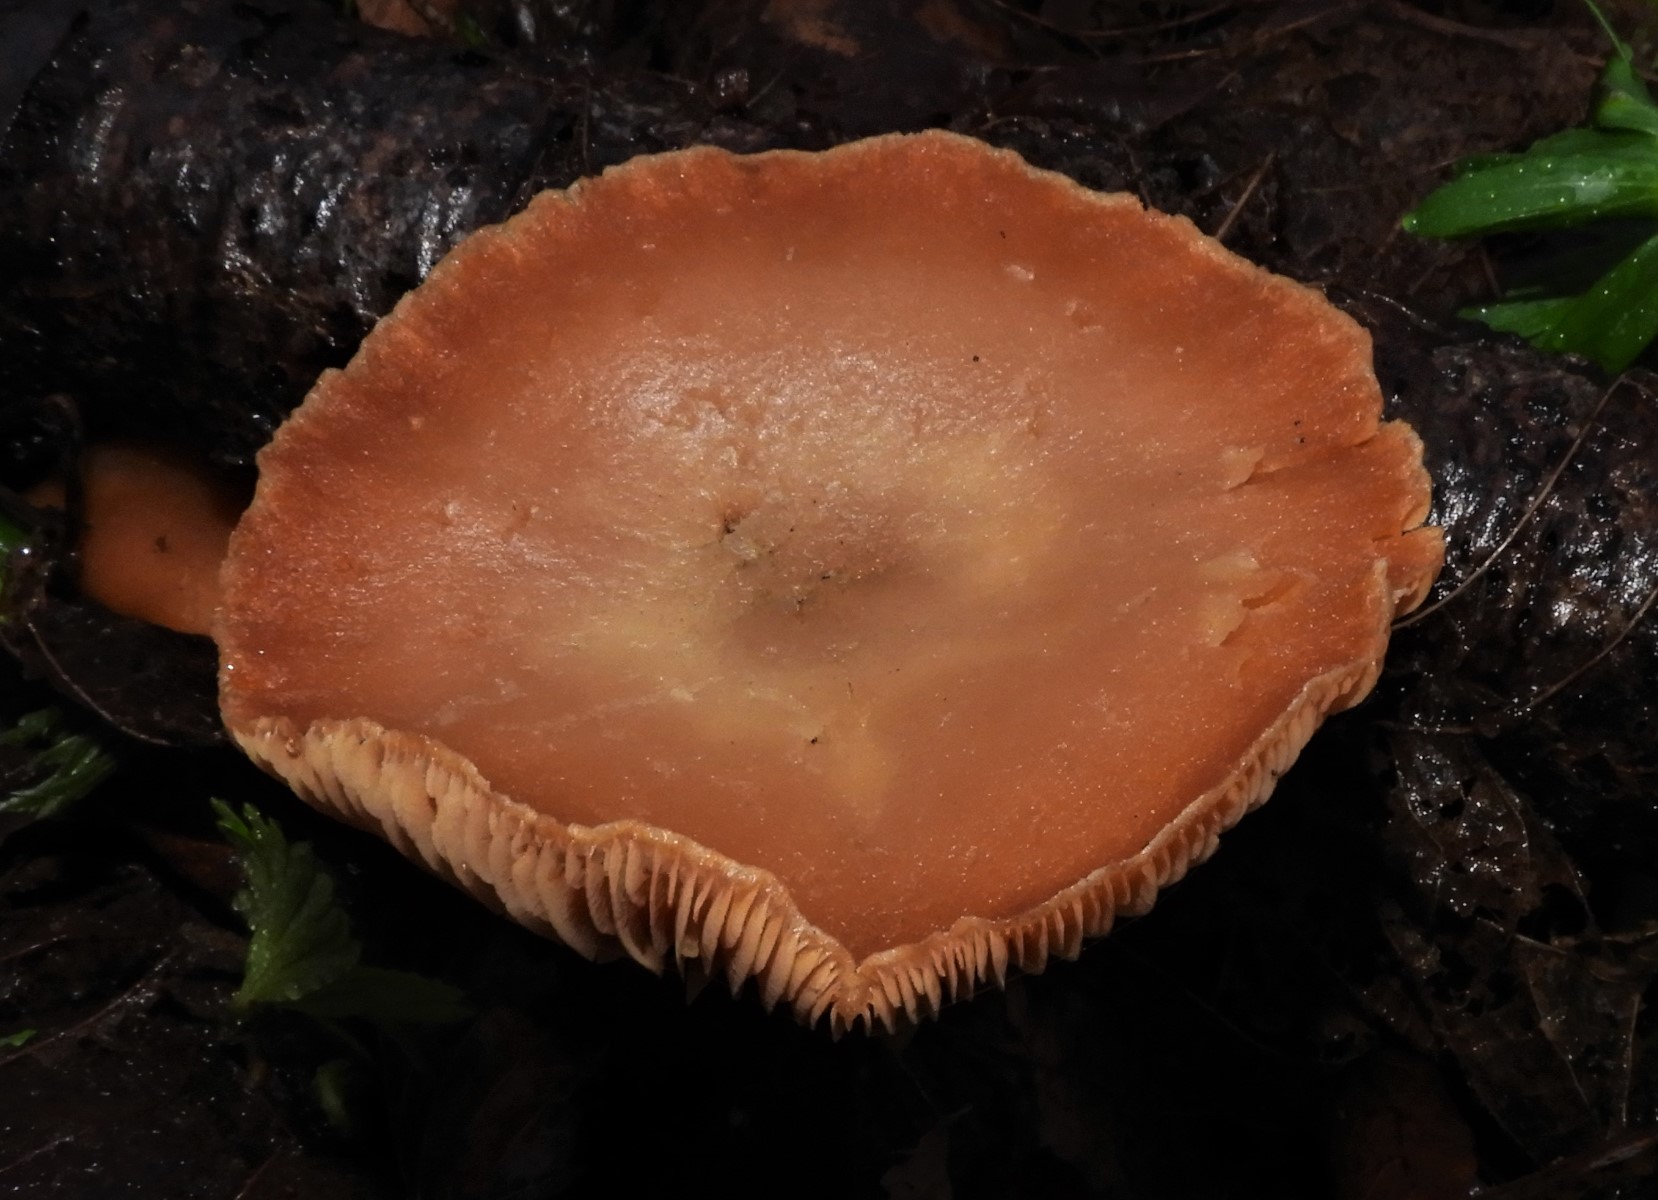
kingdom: Fungi
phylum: Basidiomycota
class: Agaricomycetes
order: Agaricales
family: Tubariaceae
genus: Tubaria
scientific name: Tubaria furfuracea
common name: kliddet fnughat
